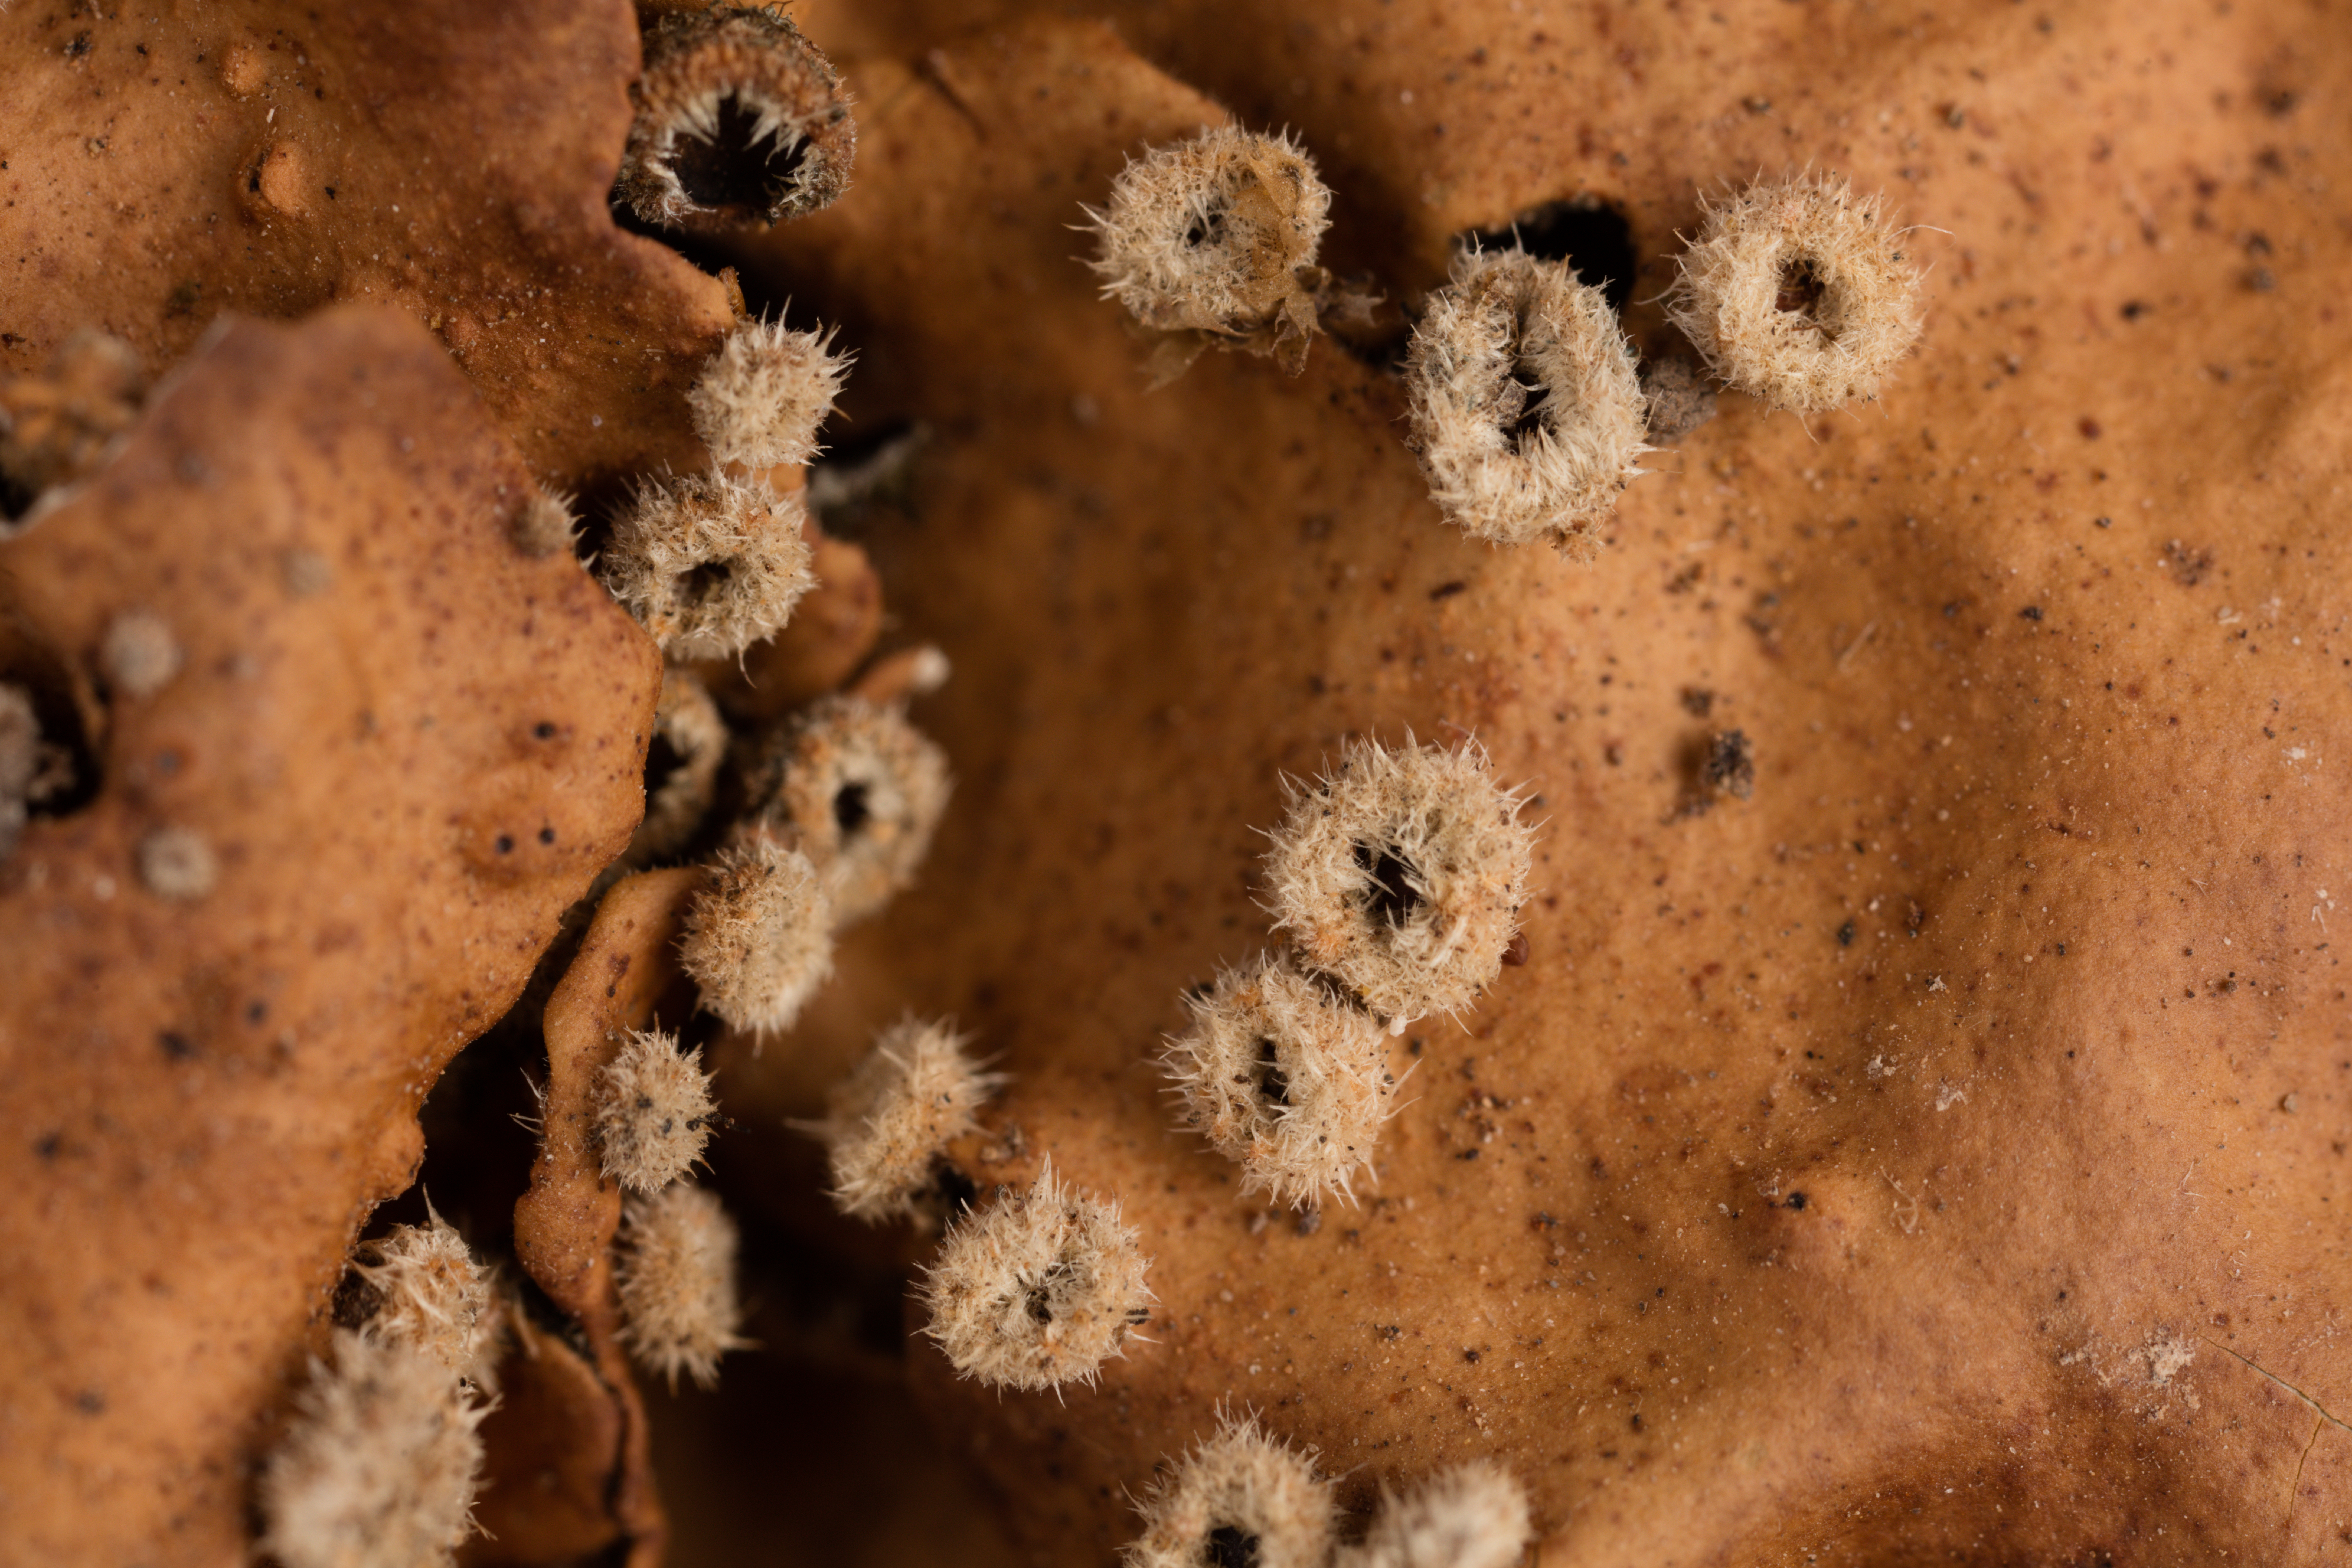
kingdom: Fungi
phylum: Ascomycota
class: Lecanoromycetes
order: Peltigerales
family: Lobariaceae
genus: Pseudocyphellaria
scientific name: Pseudocyphellaria coriacea
